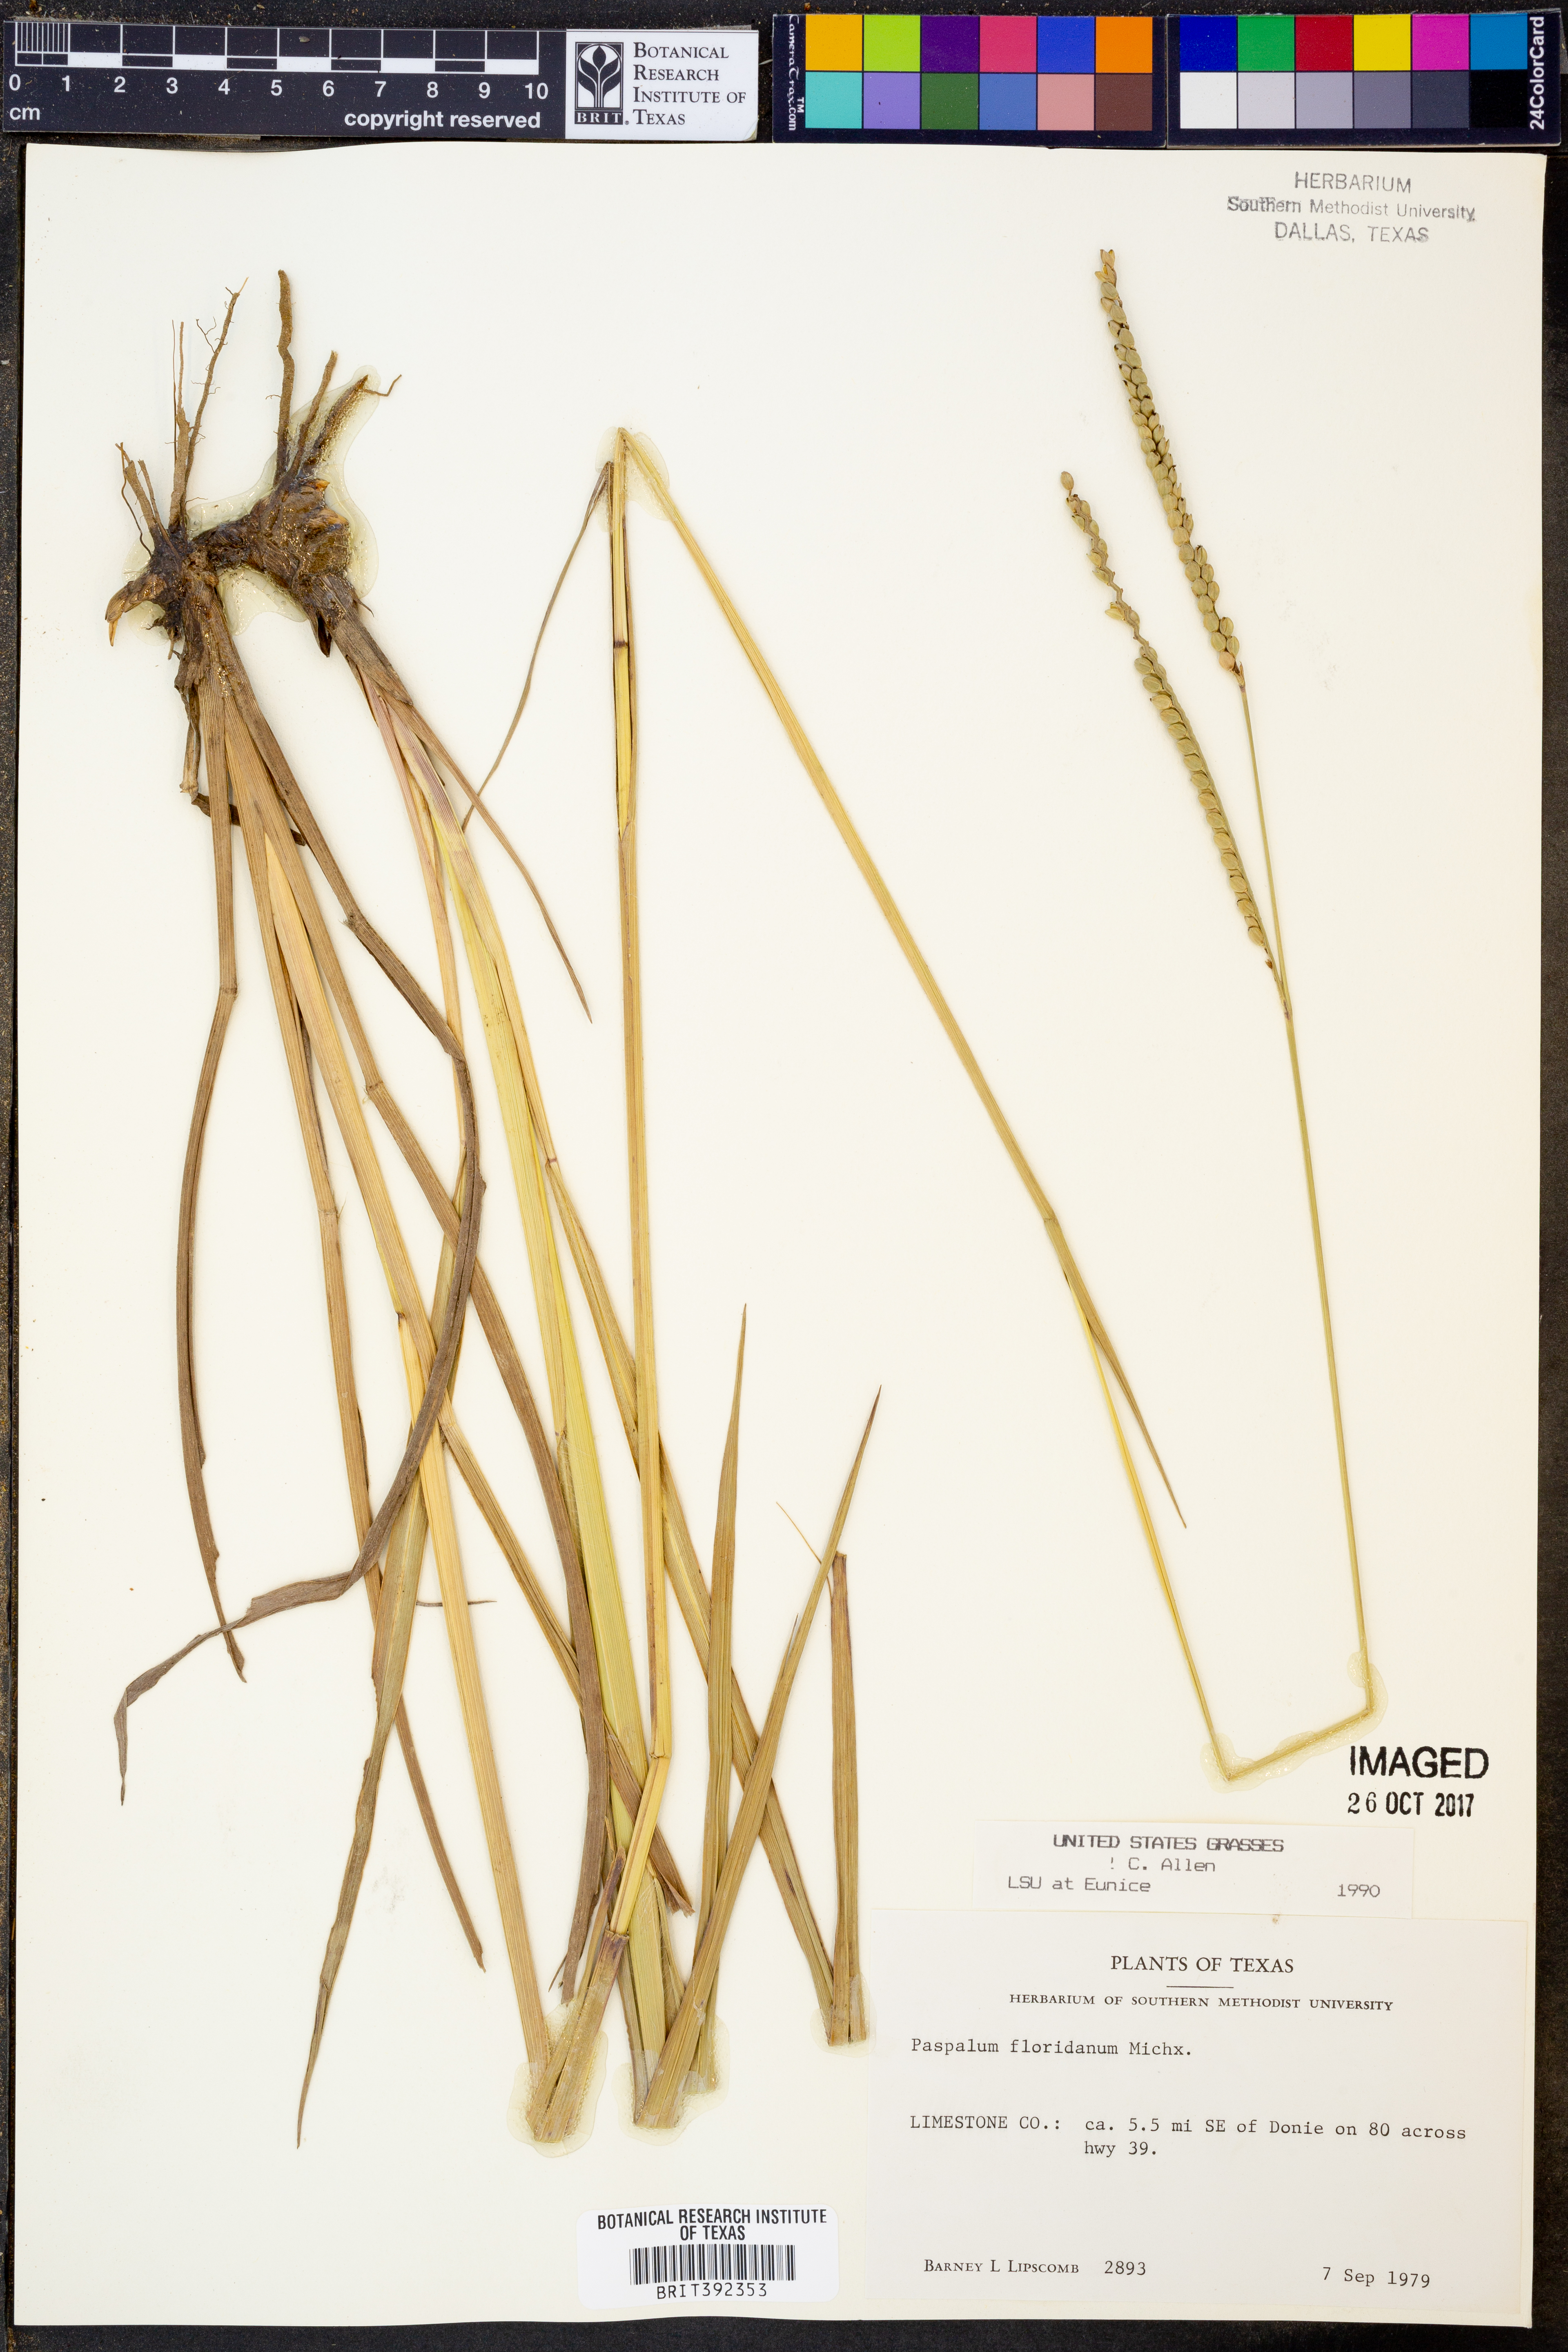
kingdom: Plantae
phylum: Tracheophyta
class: Liliopsida
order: Poales
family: Poaceae
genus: Paspalum
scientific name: Paspalum floridanum
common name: Florida paspalum
